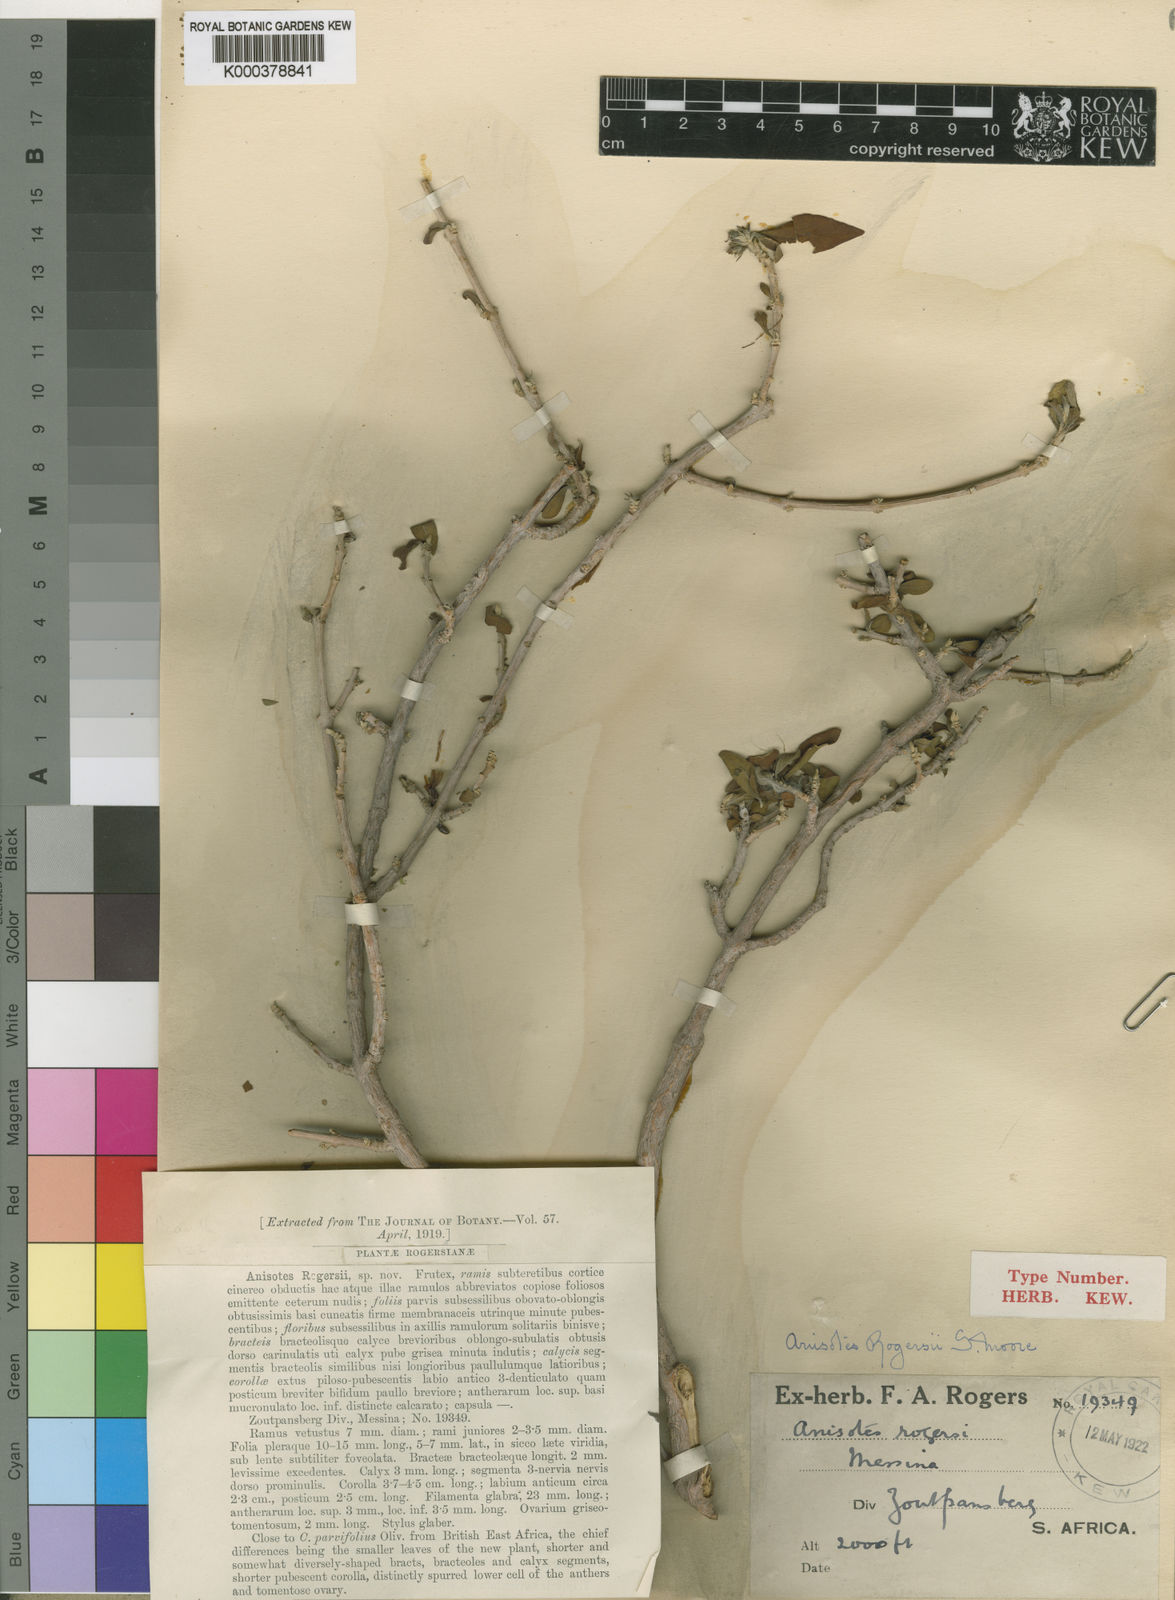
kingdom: Plantae
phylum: Tracheophyta
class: Magnoliopsida
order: Lamiales
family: Acanthaceae
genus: Anisotes
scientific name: Anisotes rogersii
